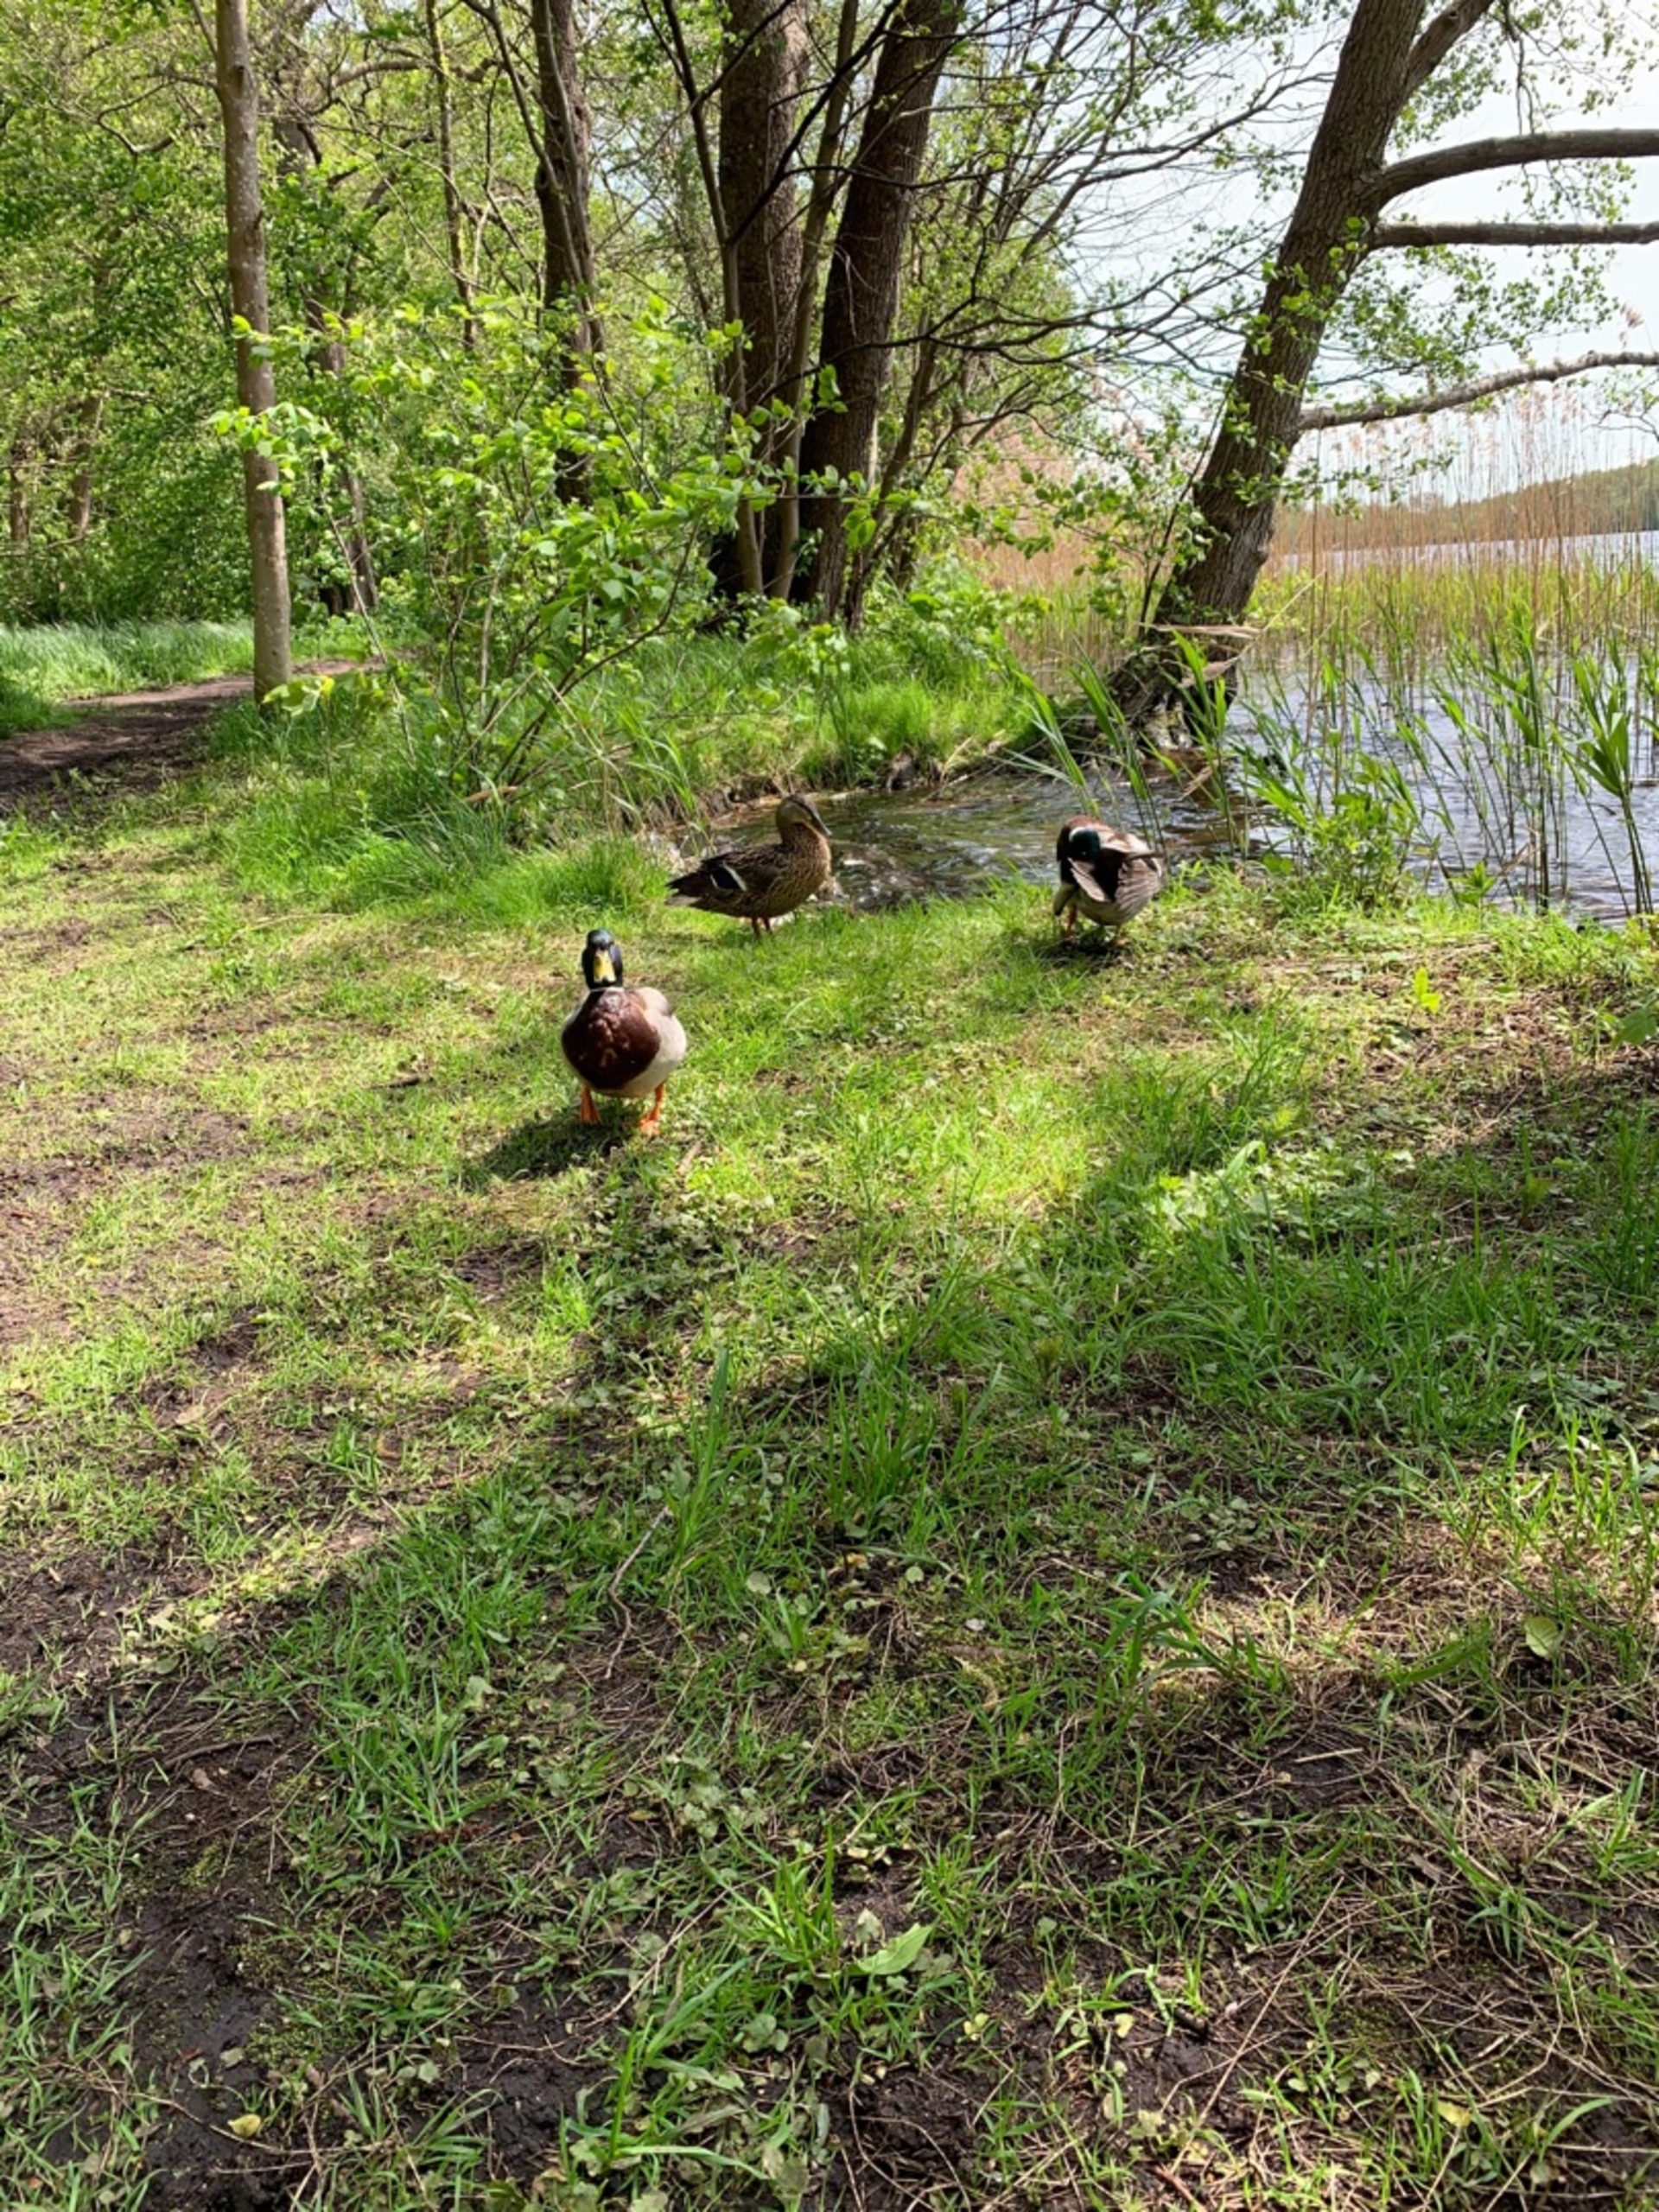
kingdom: Animalia
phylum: Chordata
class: Aves
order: Anseriformes
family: Anatidae
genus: Anas
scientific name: Anas platyrhynchos
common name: Gråand
